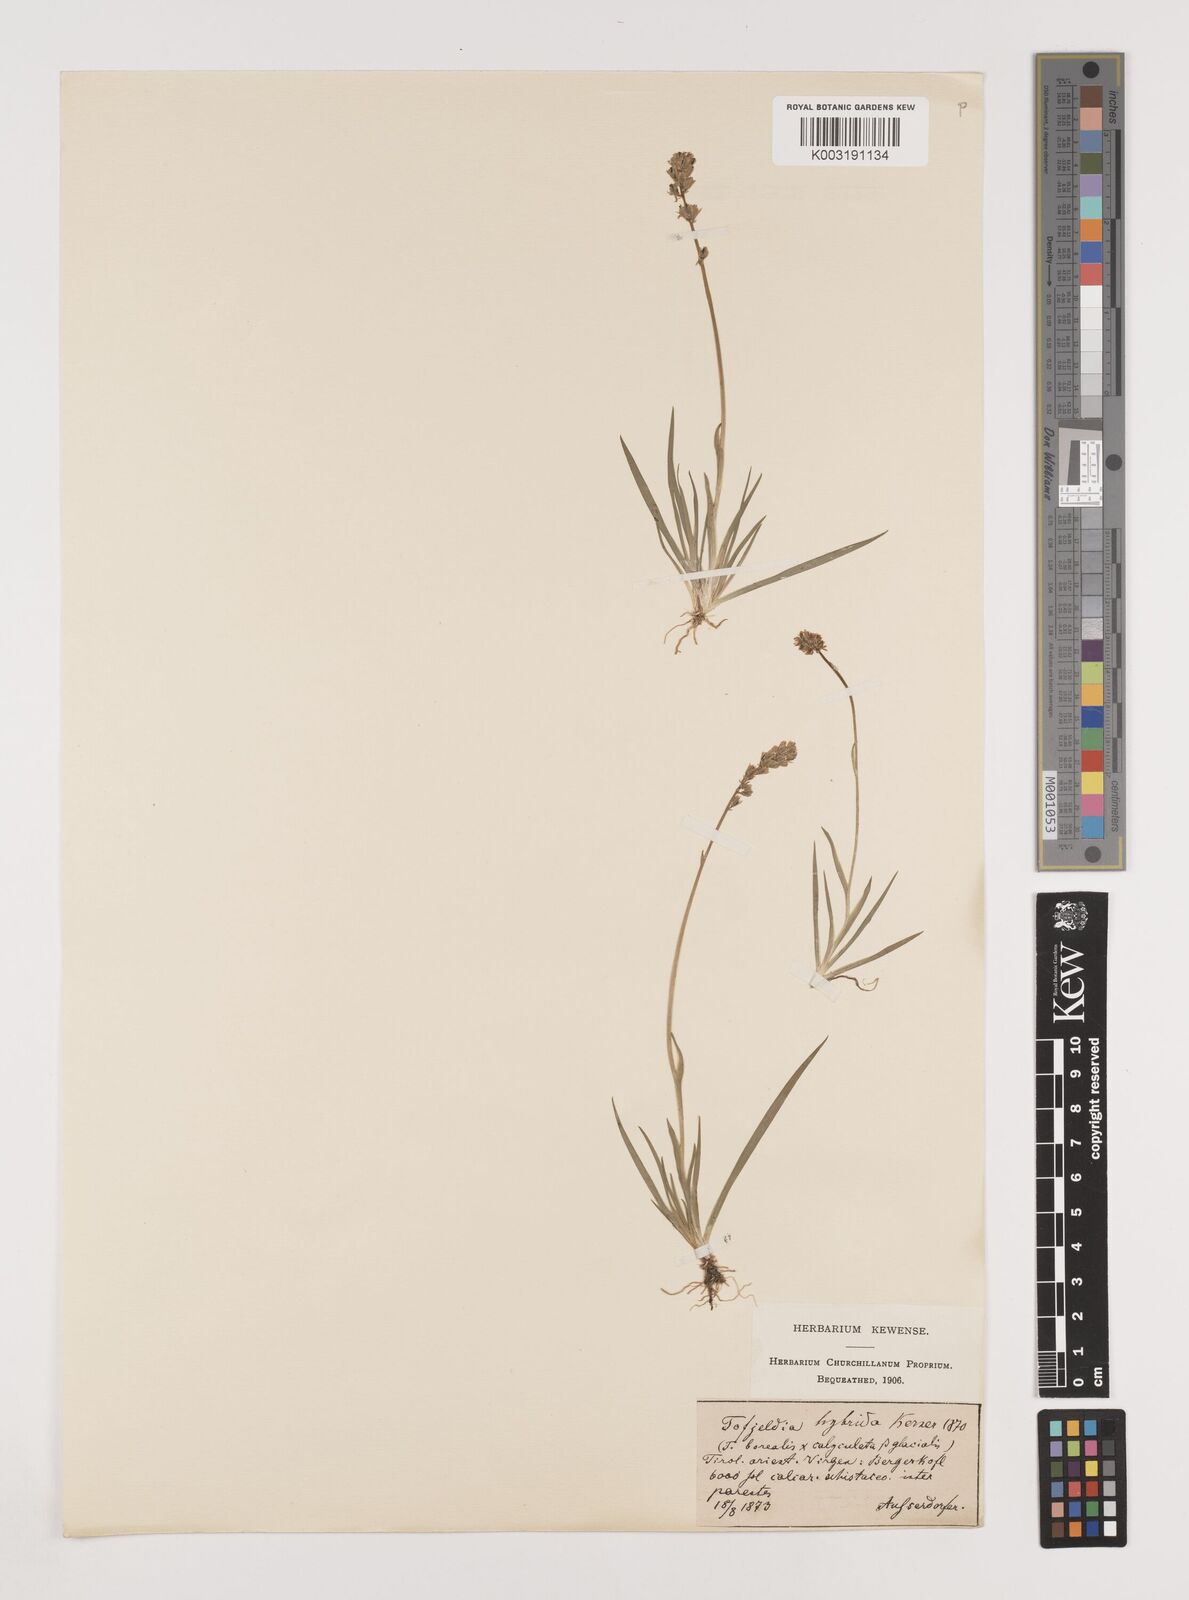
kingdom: Plantae
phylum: Tracheophyta
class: Liliopsida
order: Alismatales
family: Tofieldiaceae
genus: Tofieldia
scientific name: Tofieldia hybrida
